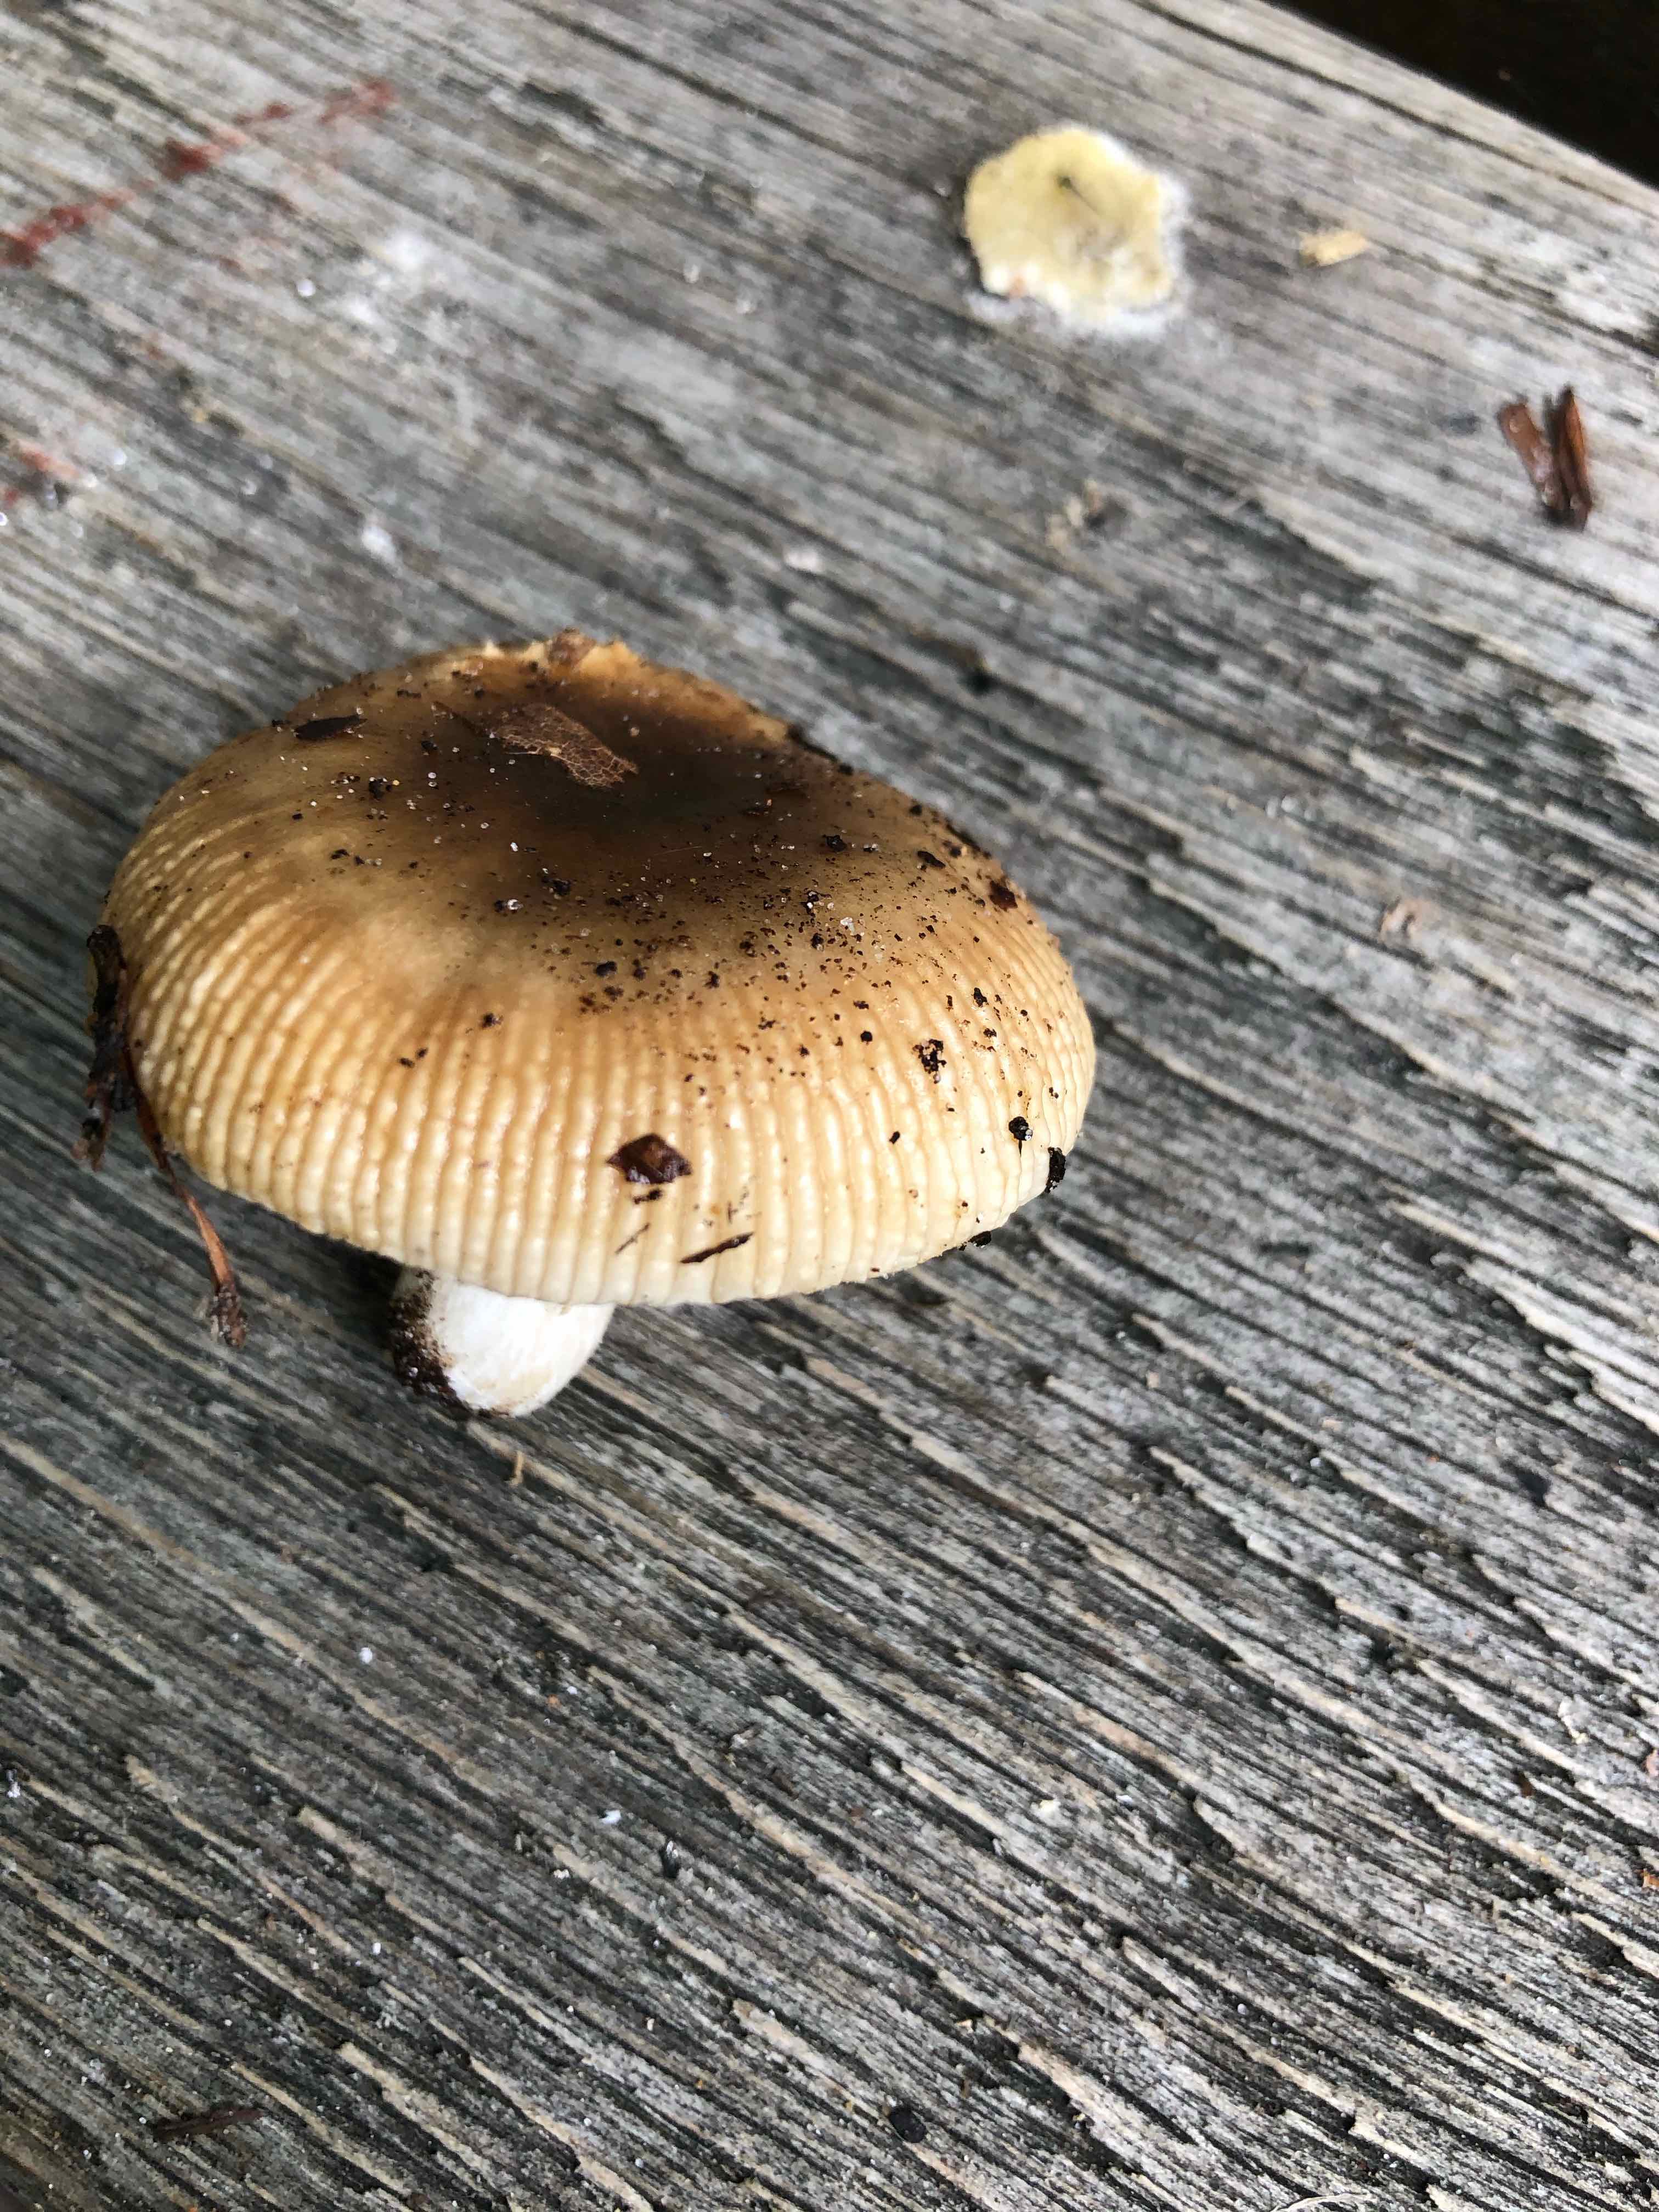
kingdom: Fungi
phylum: Basidiomycota
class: Agaricomycetes
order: Russulales
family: Russulaceae
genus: Russula
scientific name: Russula recondita
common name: mild kam-skørhat
